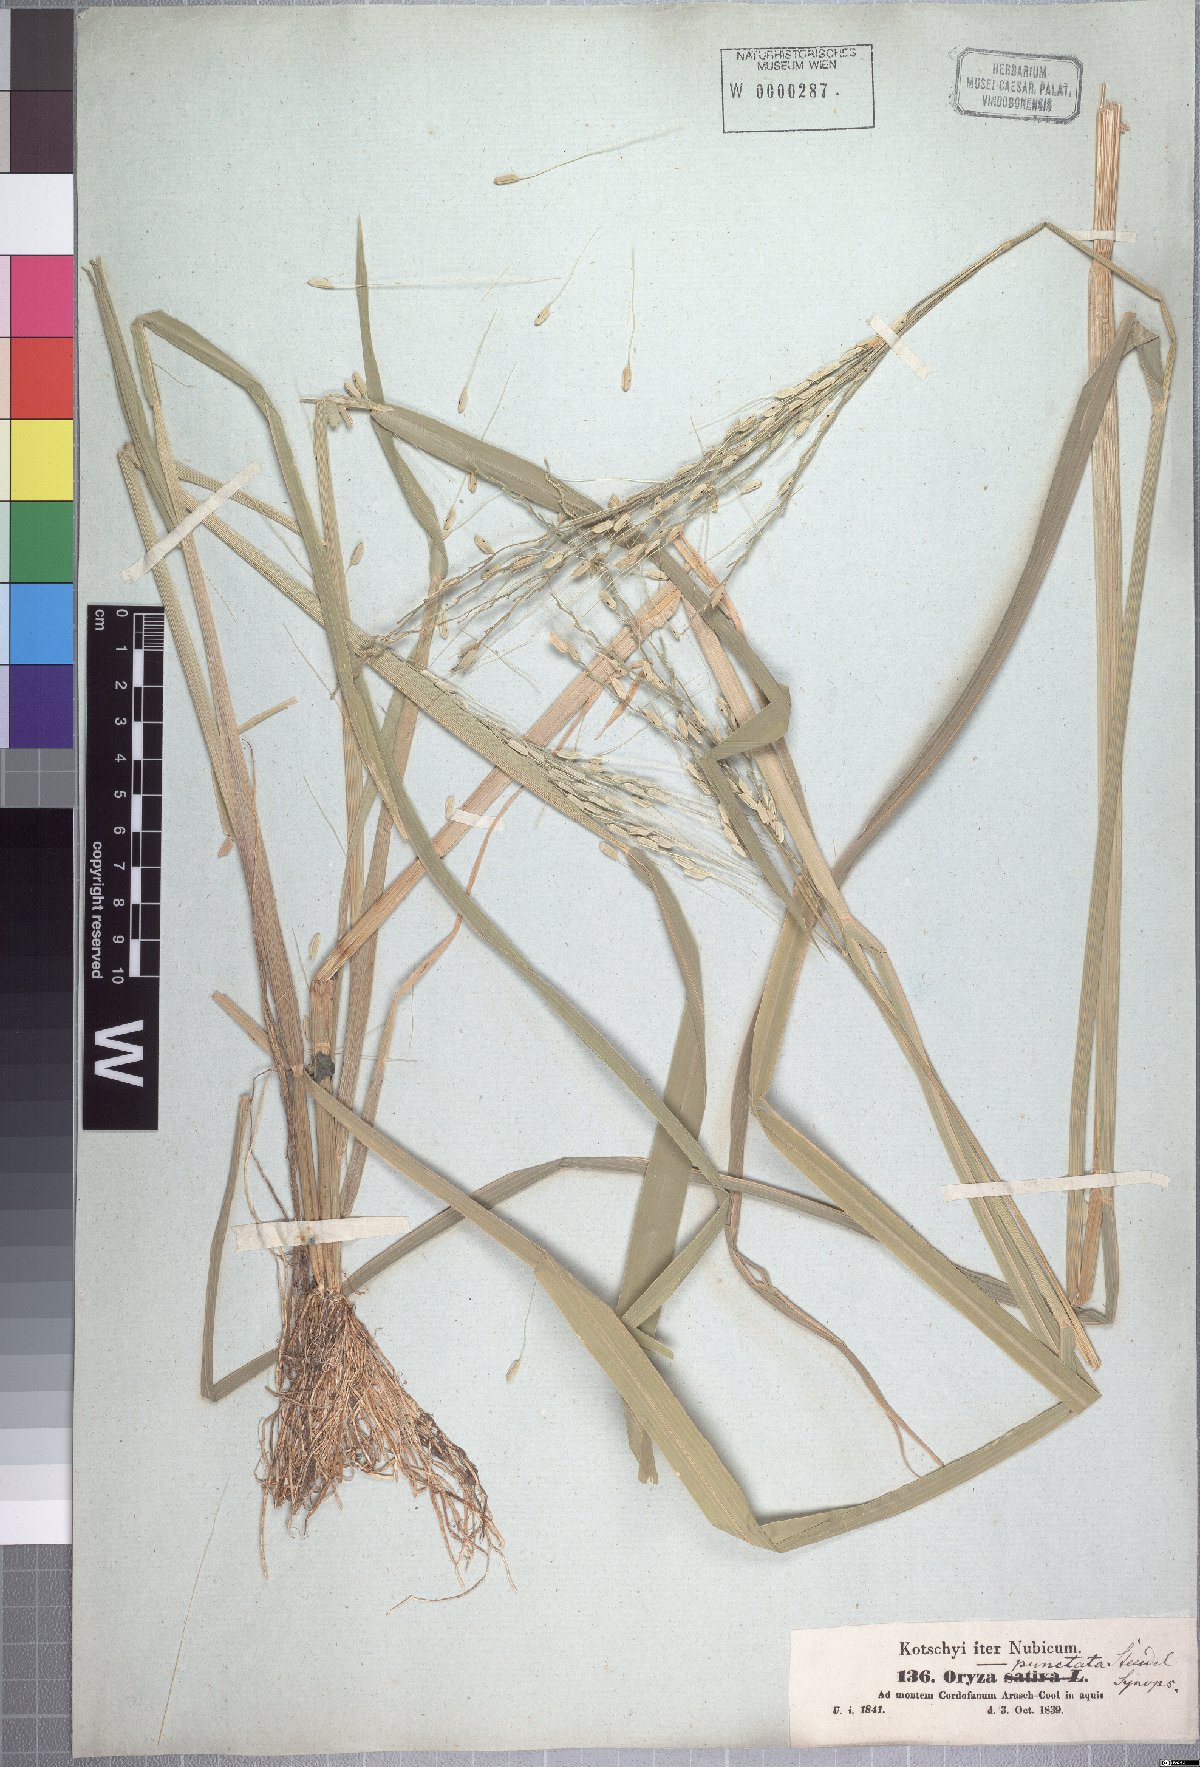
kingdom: Plantae
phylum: Tracheophyta
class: Liliopsida
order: Poales
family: Poaceae
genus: Oryza
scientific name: Oryza punctata
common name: Red rice
